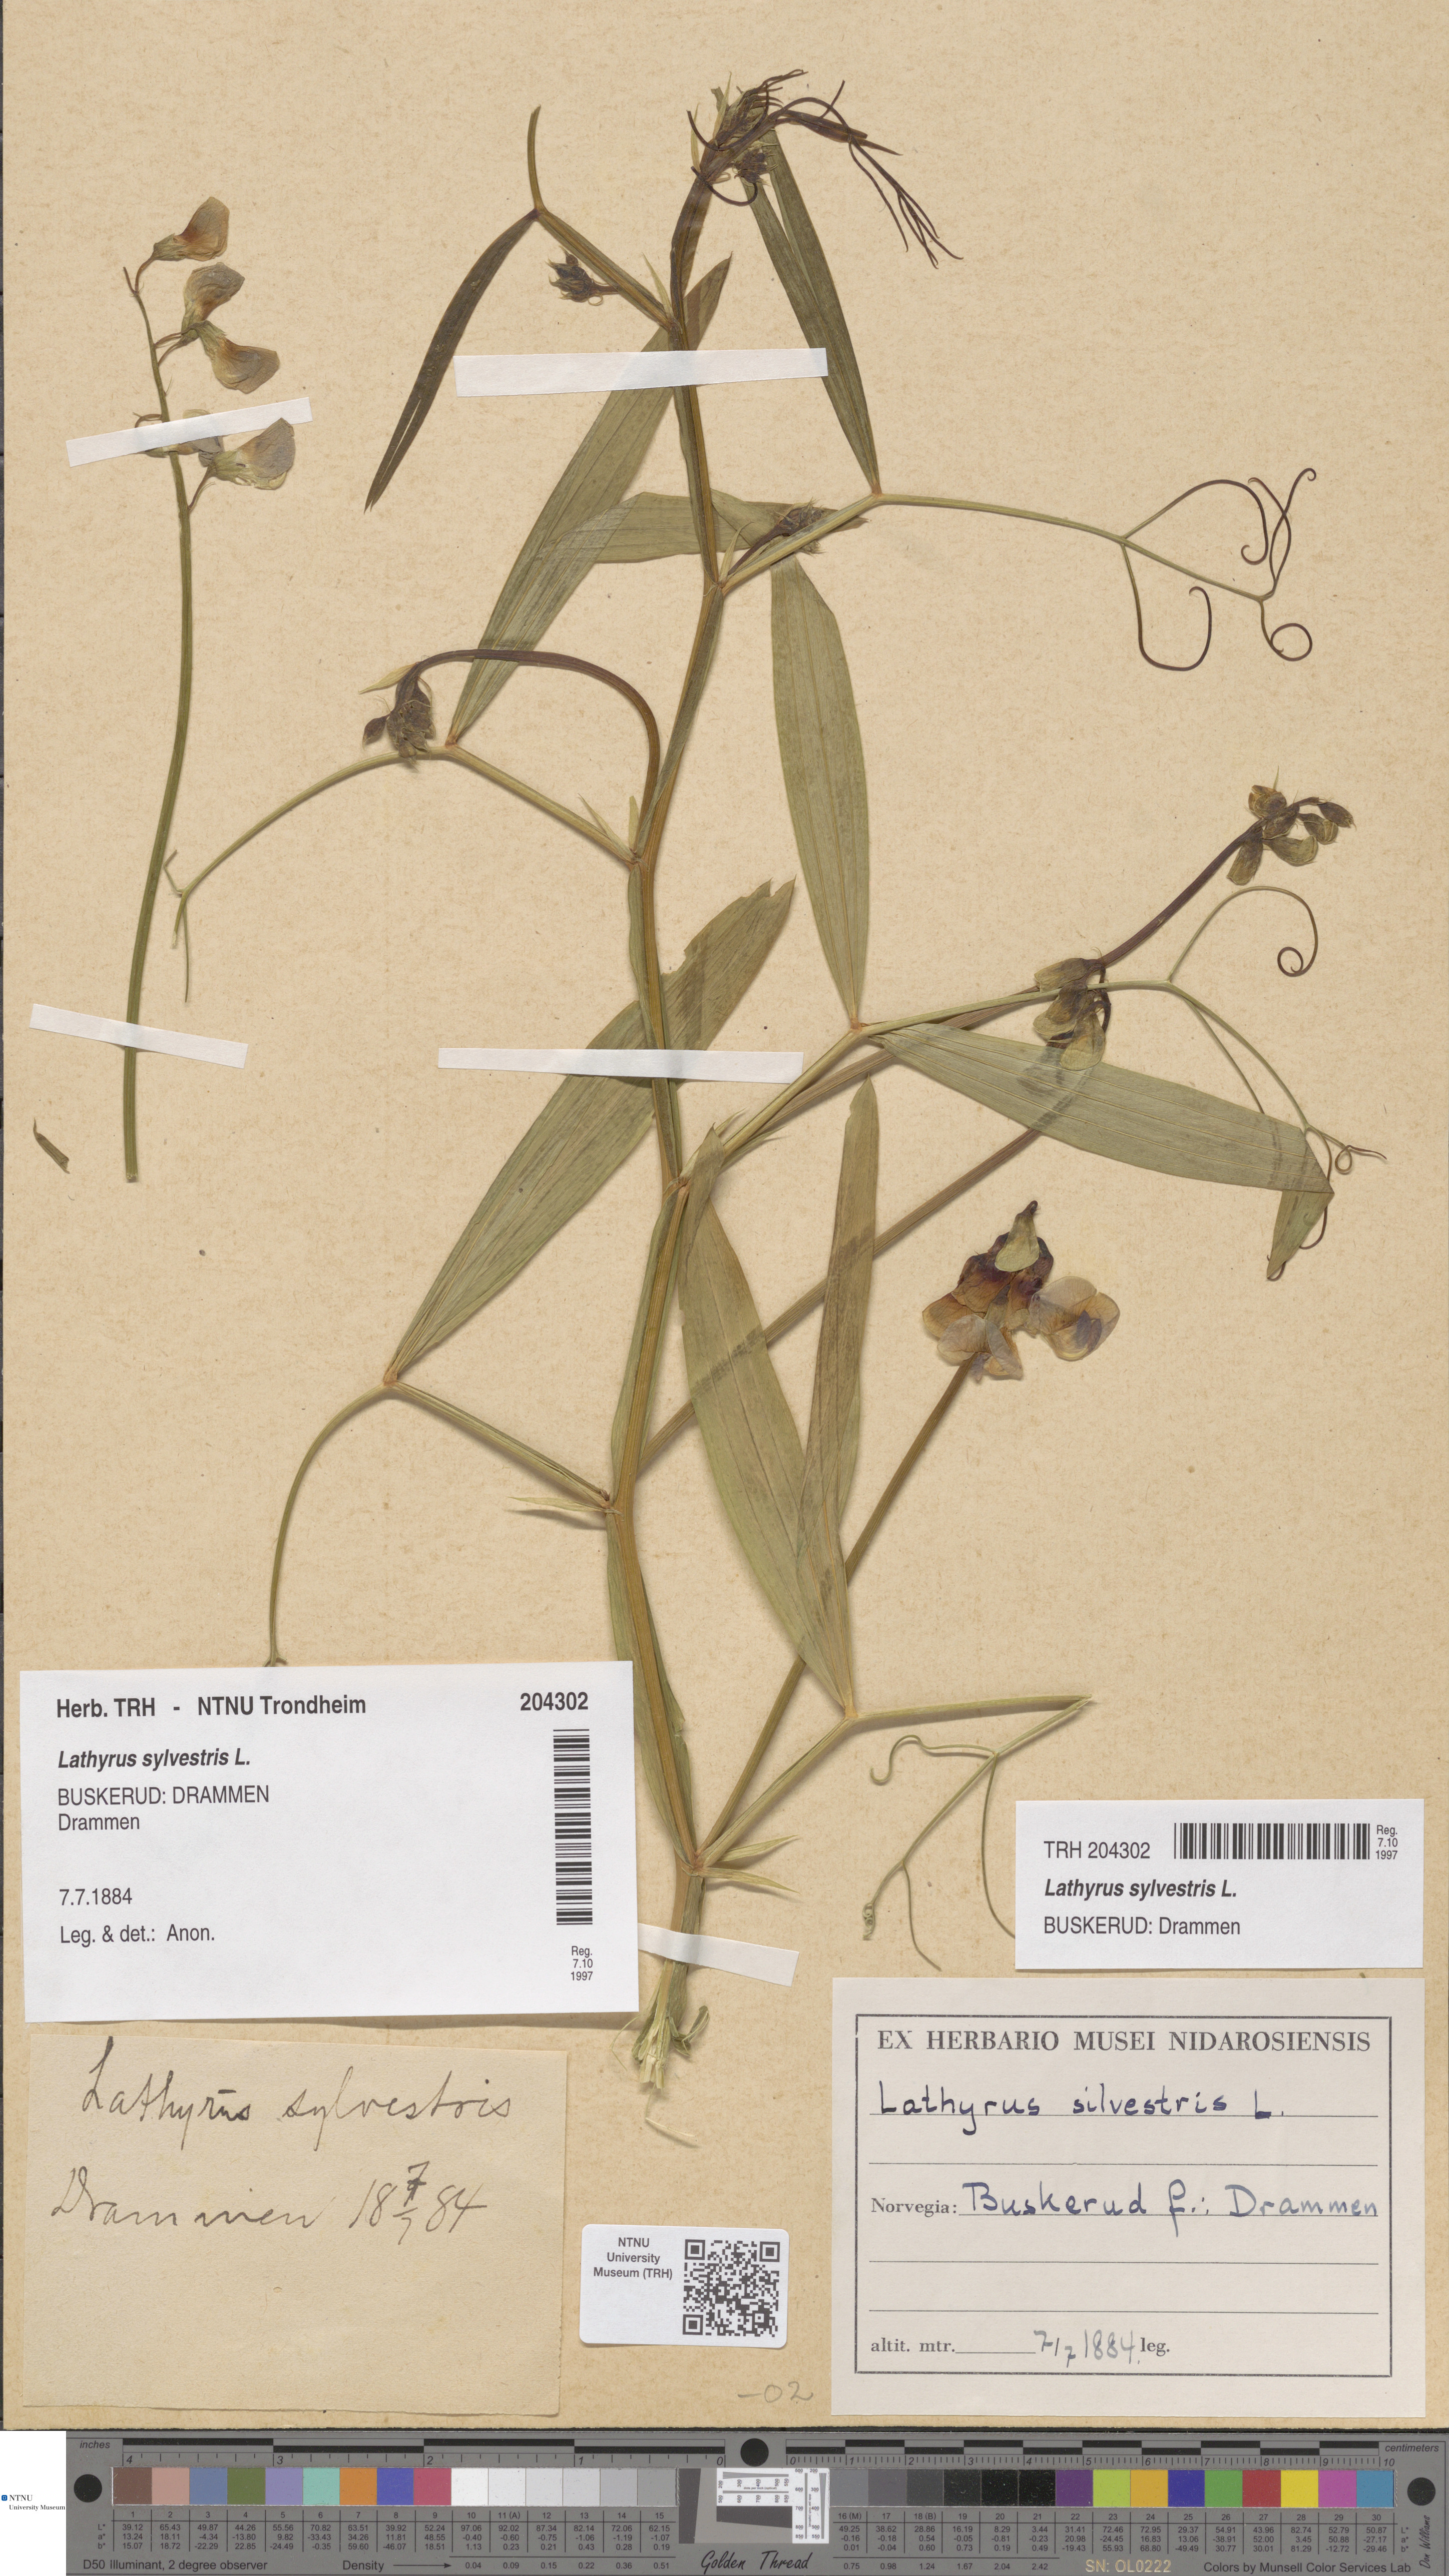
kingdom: Plantae
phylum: Tracheophyta
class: Magnoliopsida
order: Fabales
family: Fabaceae
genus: Lathyrus
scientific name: Lathyrus sylvestris
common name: Flat pea
